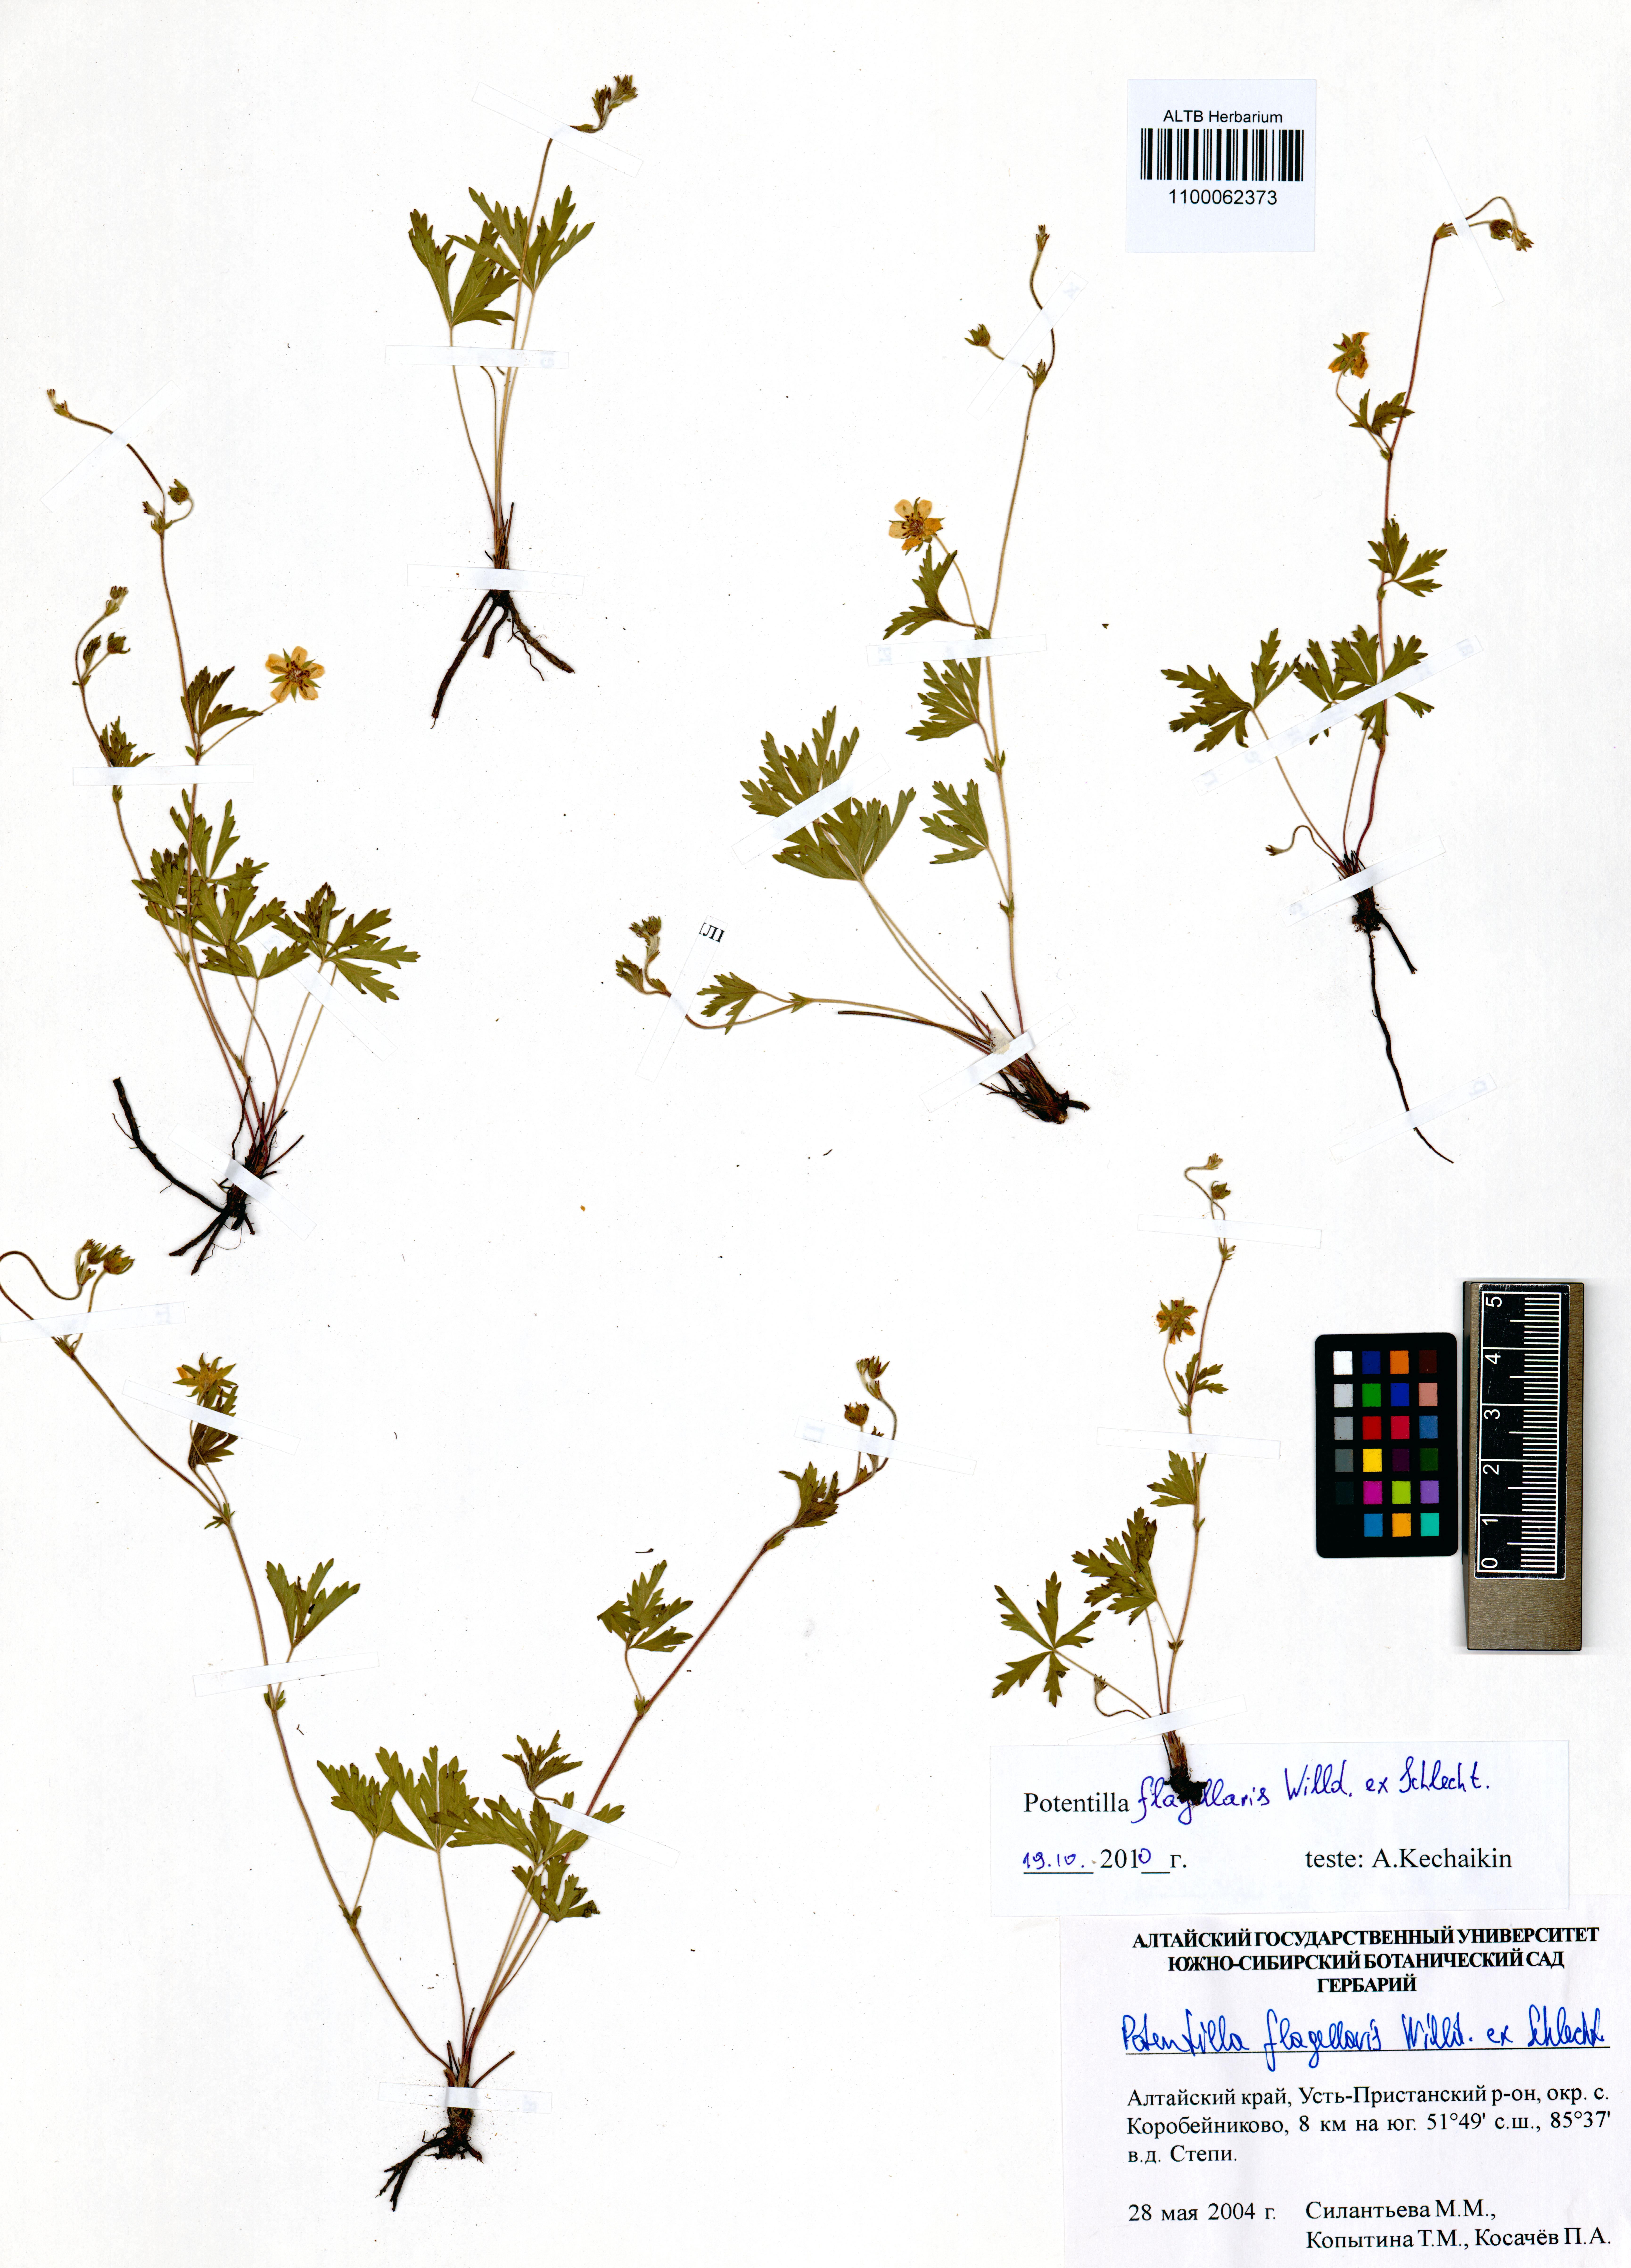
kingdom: Plantae
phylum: Tracheophyta
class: Magnoliopsida
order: Rosales
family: Rosaceae
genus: Potentilla
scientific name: Potentilla flagellaris
